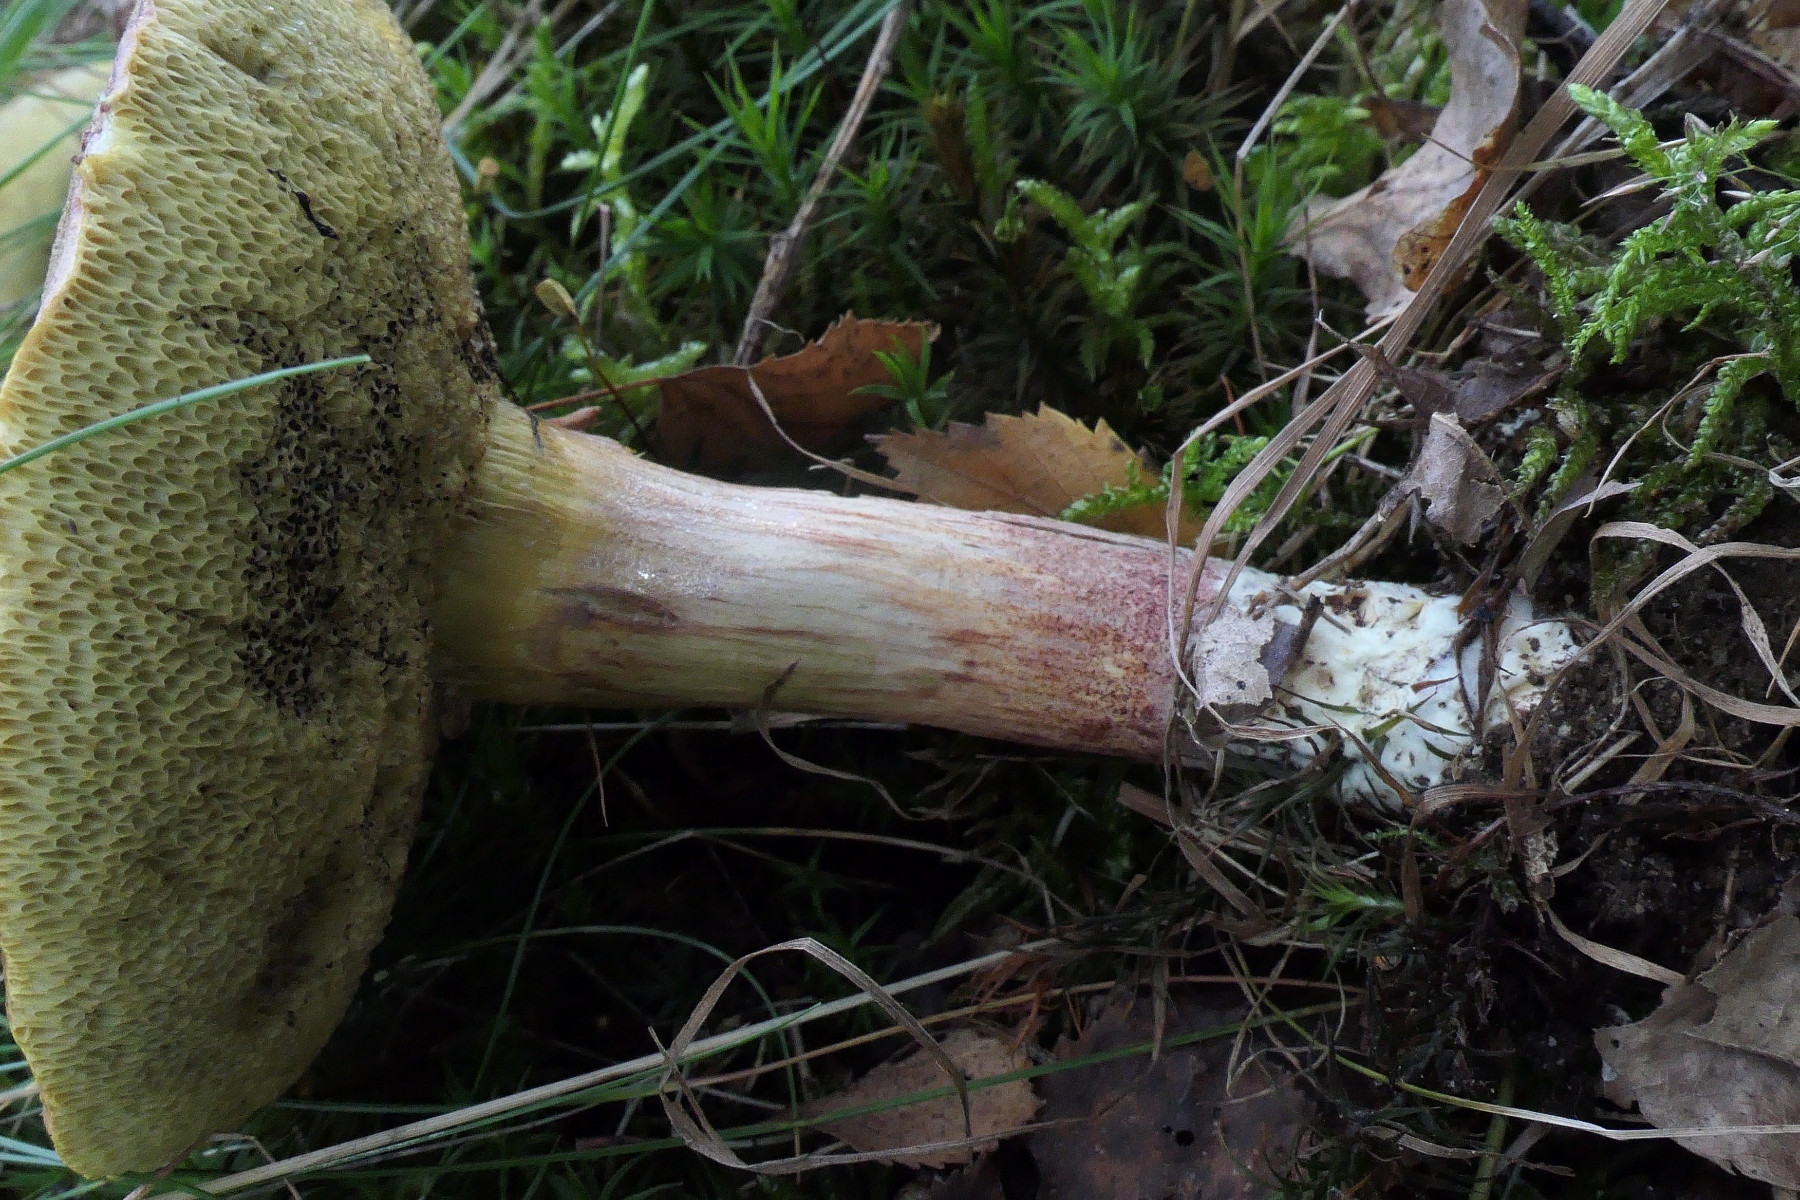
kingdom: Fungi
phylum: Basidiomycota
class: Agaricomycetes
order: Boletales
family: Boletaceae
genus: Xerocomellus
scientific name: Xerocomellus chrysenteron
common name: rødsprukken rørhat
